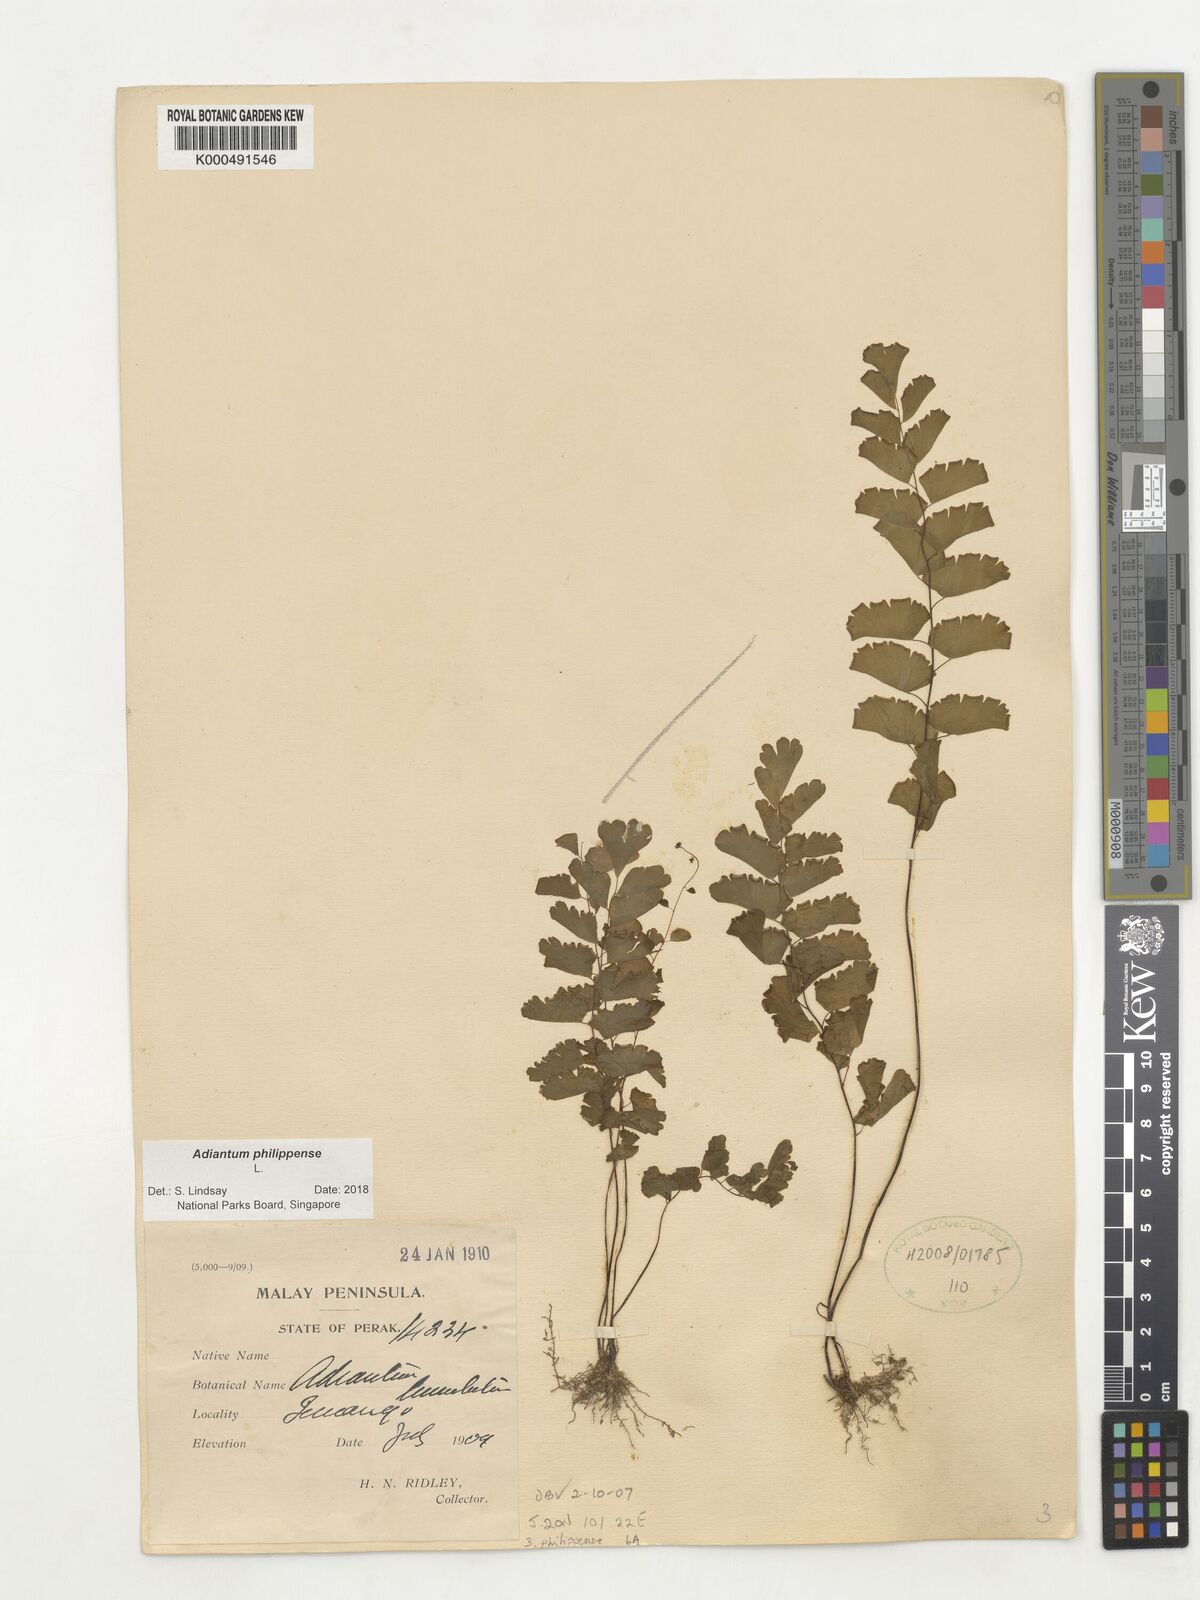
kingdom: Plantae
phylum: Tracheophyta
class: Polypodiopsida
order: Polypodiales
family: Pteridaceae
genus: Adiantum
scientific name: Adiantum philippense
